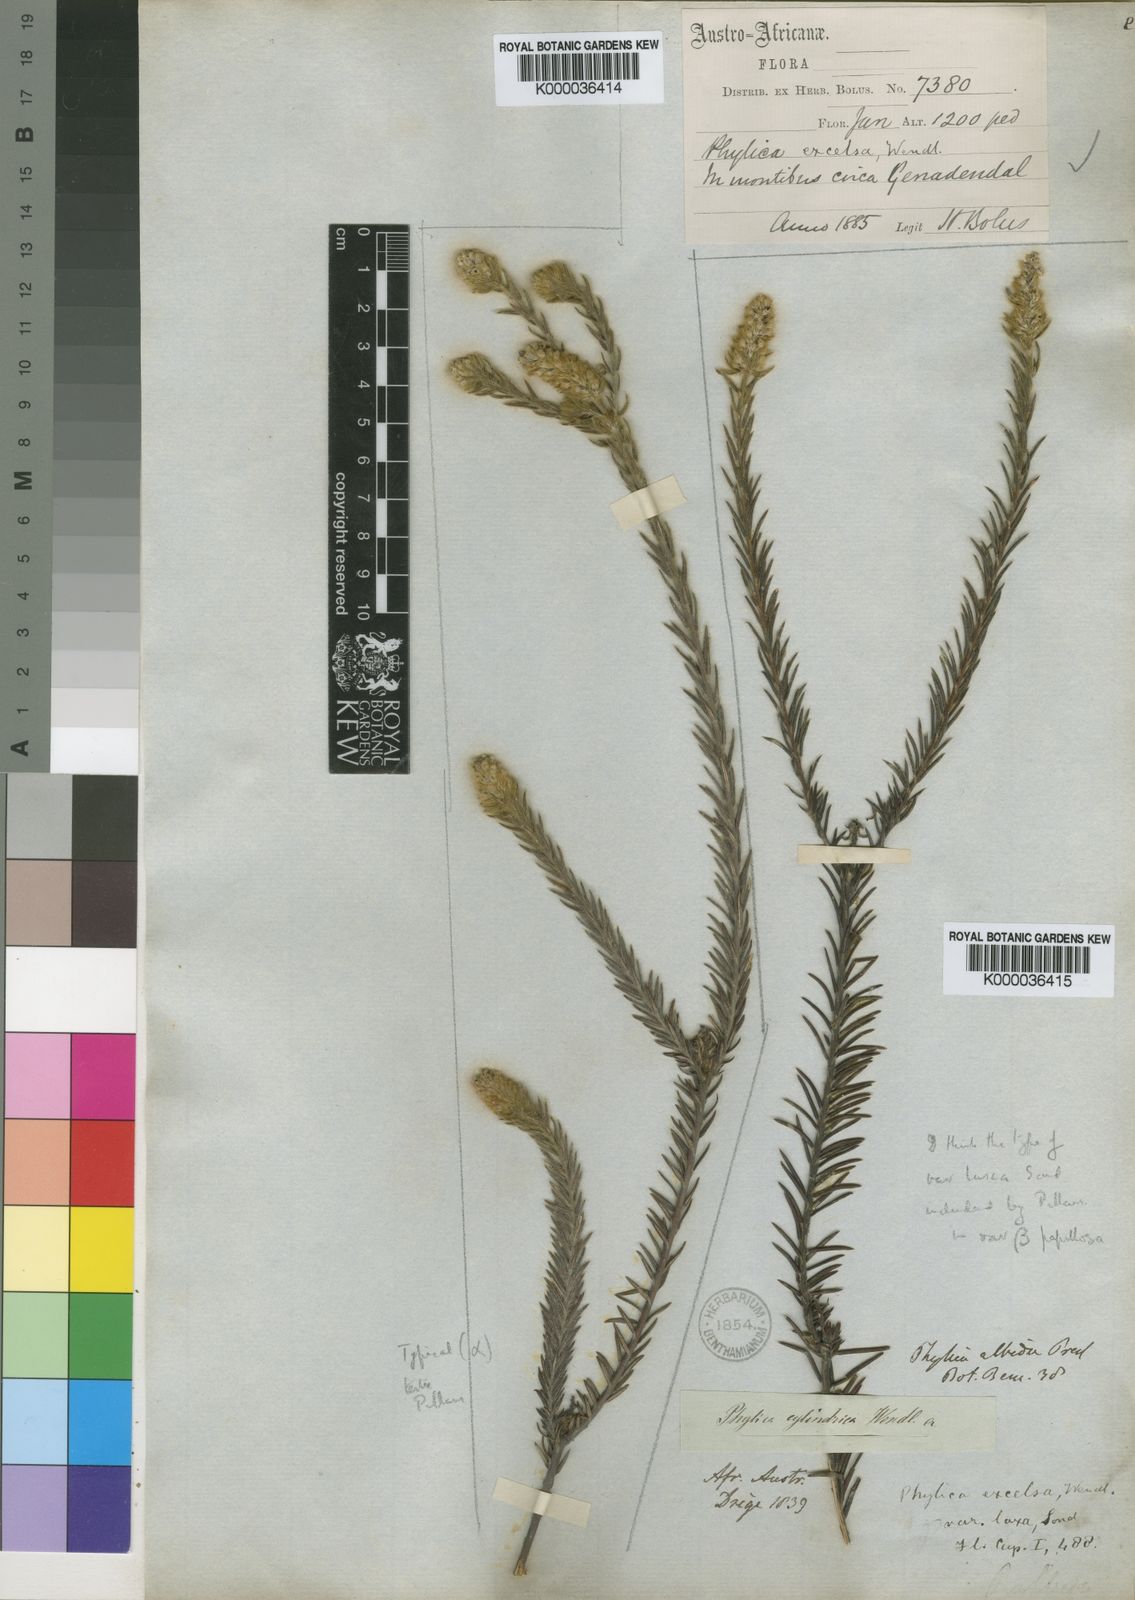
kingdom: Plantae
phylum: Tracheophyta
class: Magnoliopsida
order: Rosales
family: Rhamnaceae
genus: Phylica
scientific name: Phylica excelsa
